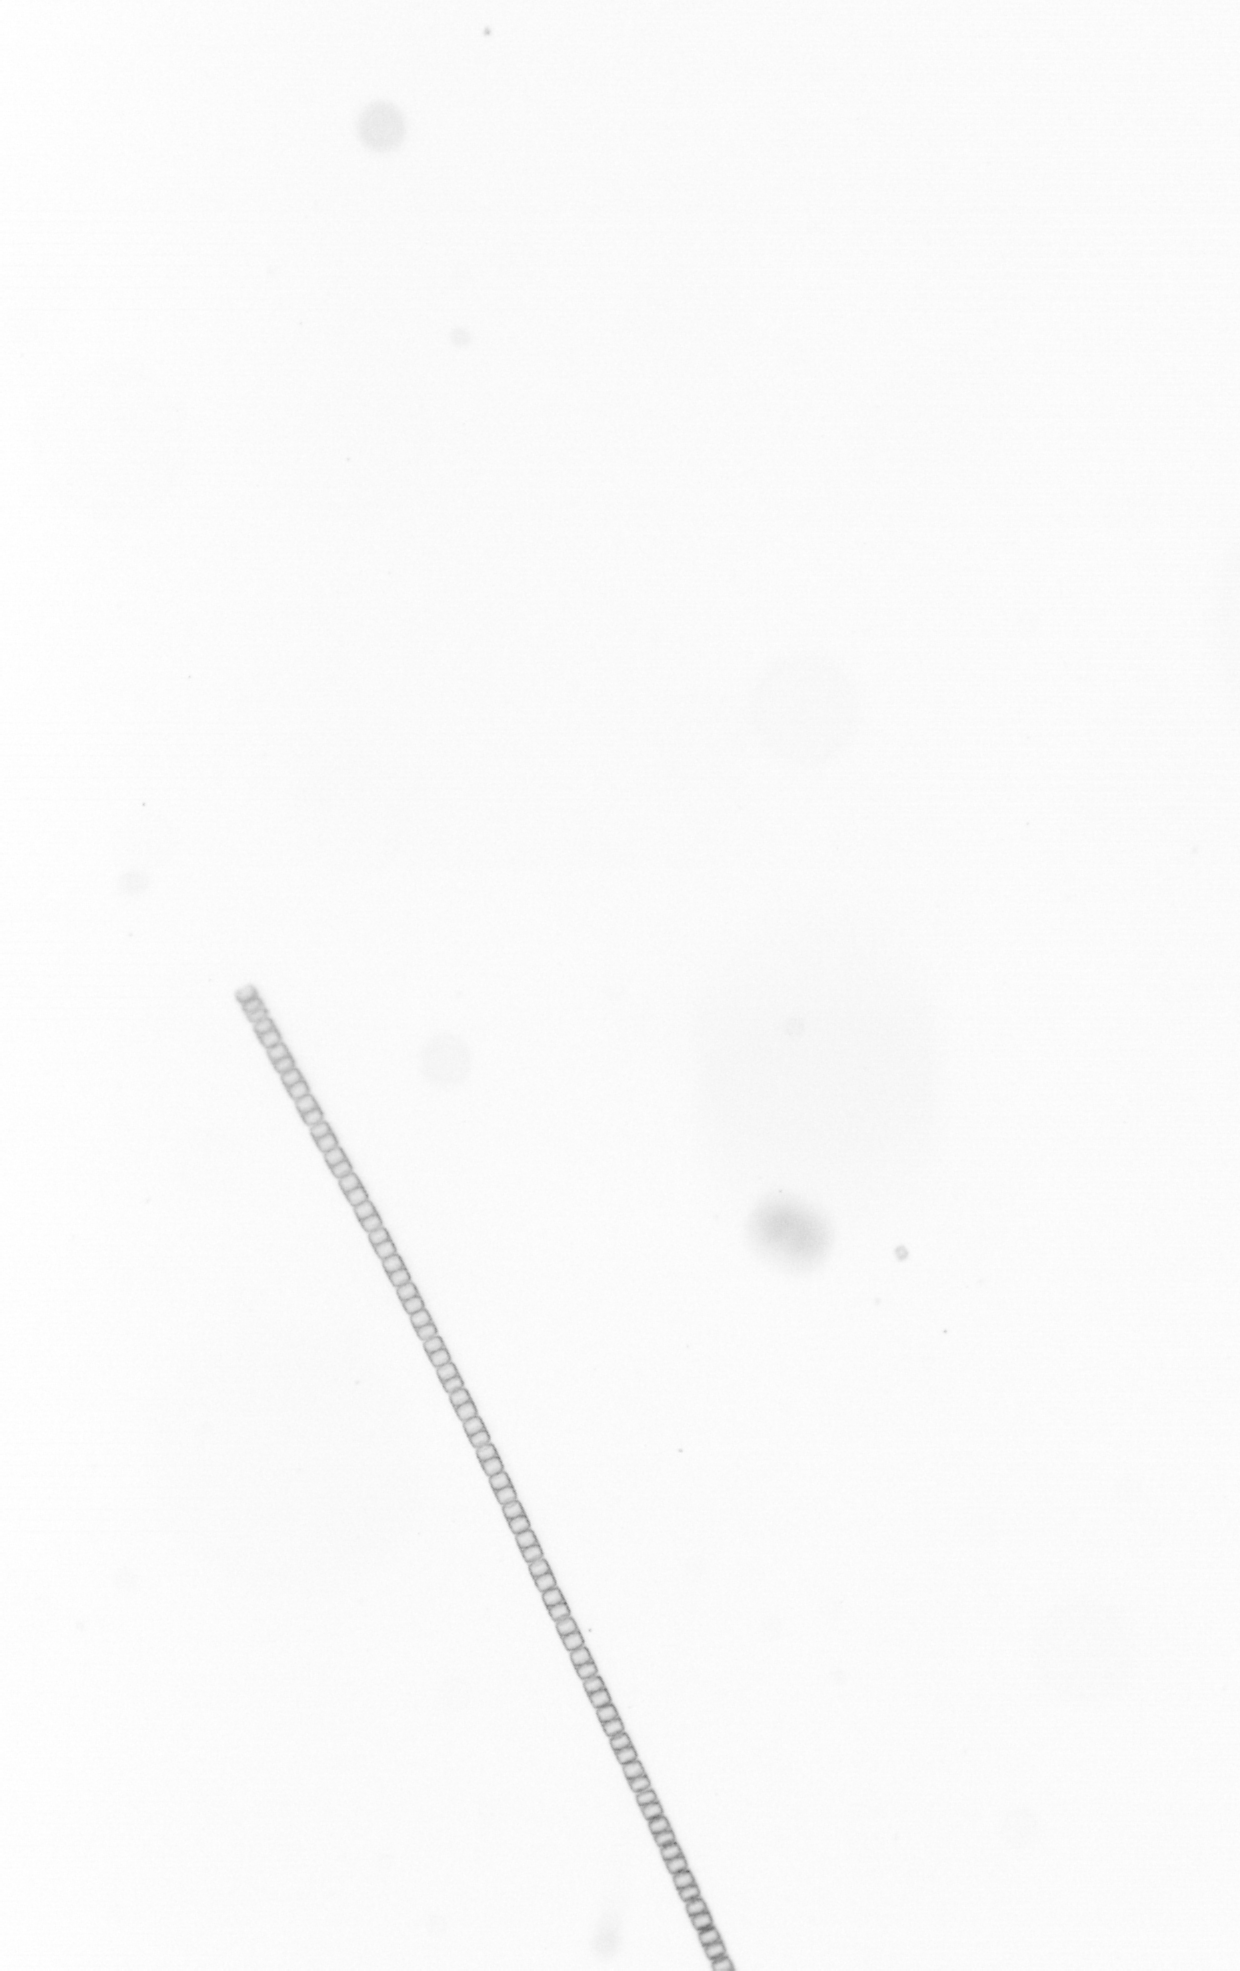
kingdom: Chromista
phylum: Ochrophyta
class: Bacillariophyceae
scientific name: Bacillariophyceae
